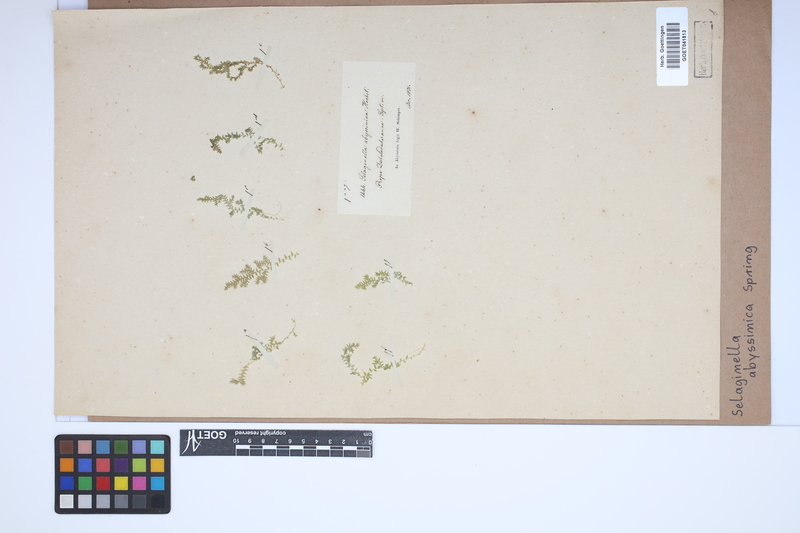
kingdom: Plantae
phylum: Tracheophyta
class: Lycopodiopsida
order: Selaginellales
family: Selaginellaceae
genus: Selaginella
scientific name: Selaginella goudotiana
